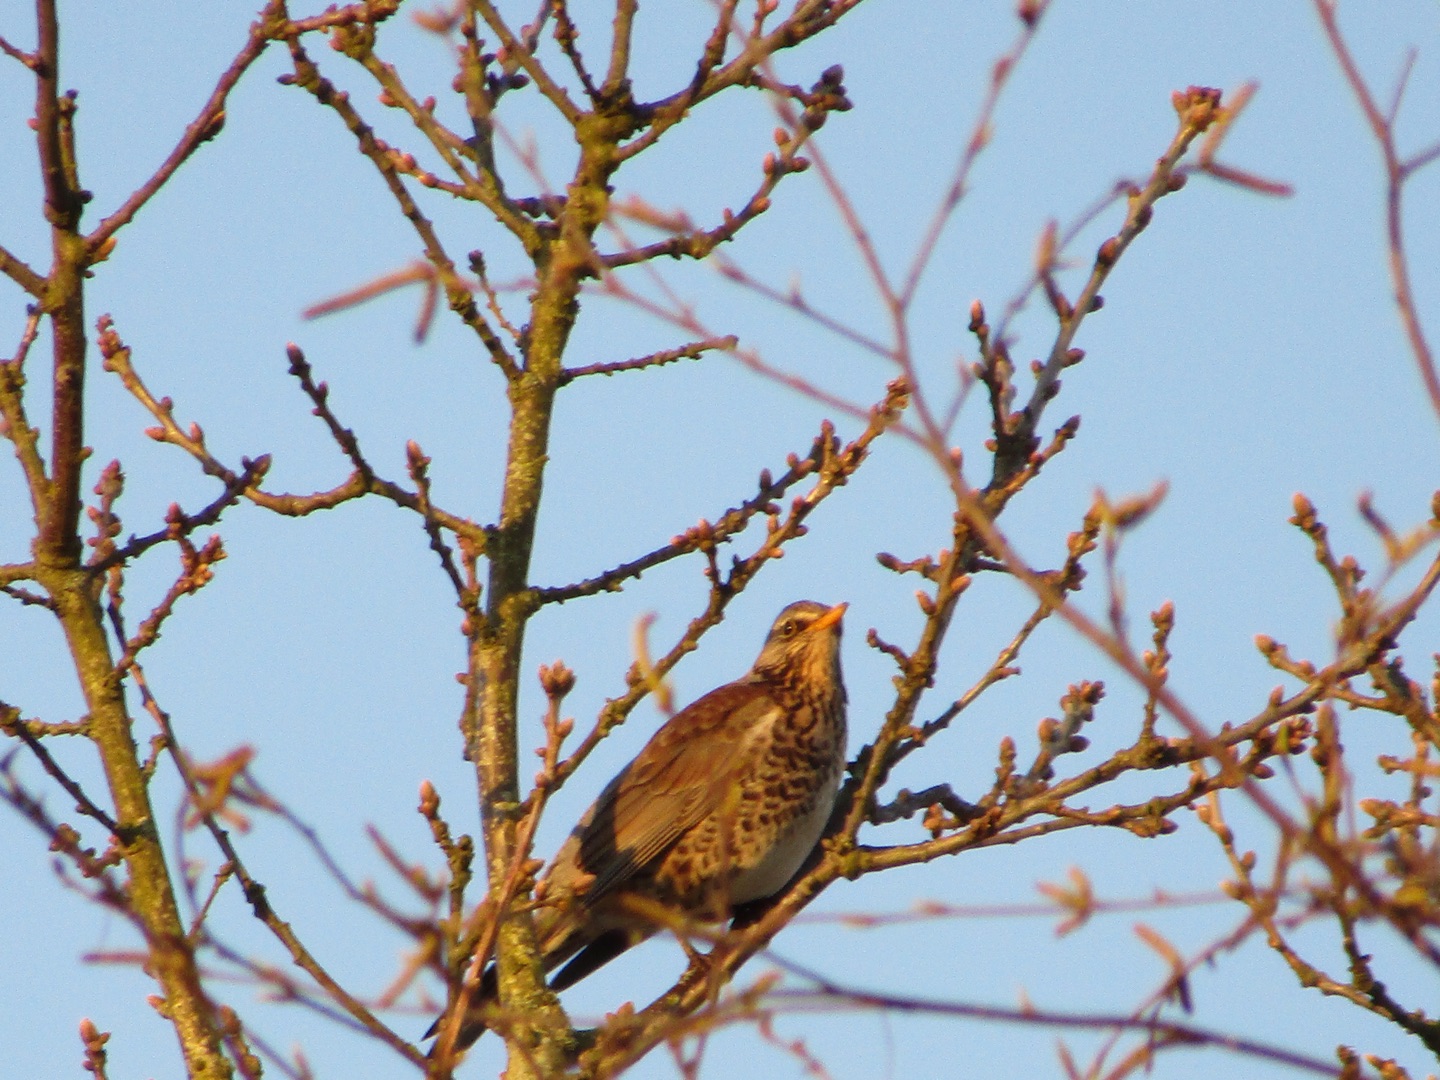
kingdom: Animalia
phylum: Chordata
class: Aves
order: Passeriformes
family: Turdidae
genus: Turdus
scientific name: Turdus pilaris
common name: Sjagger
